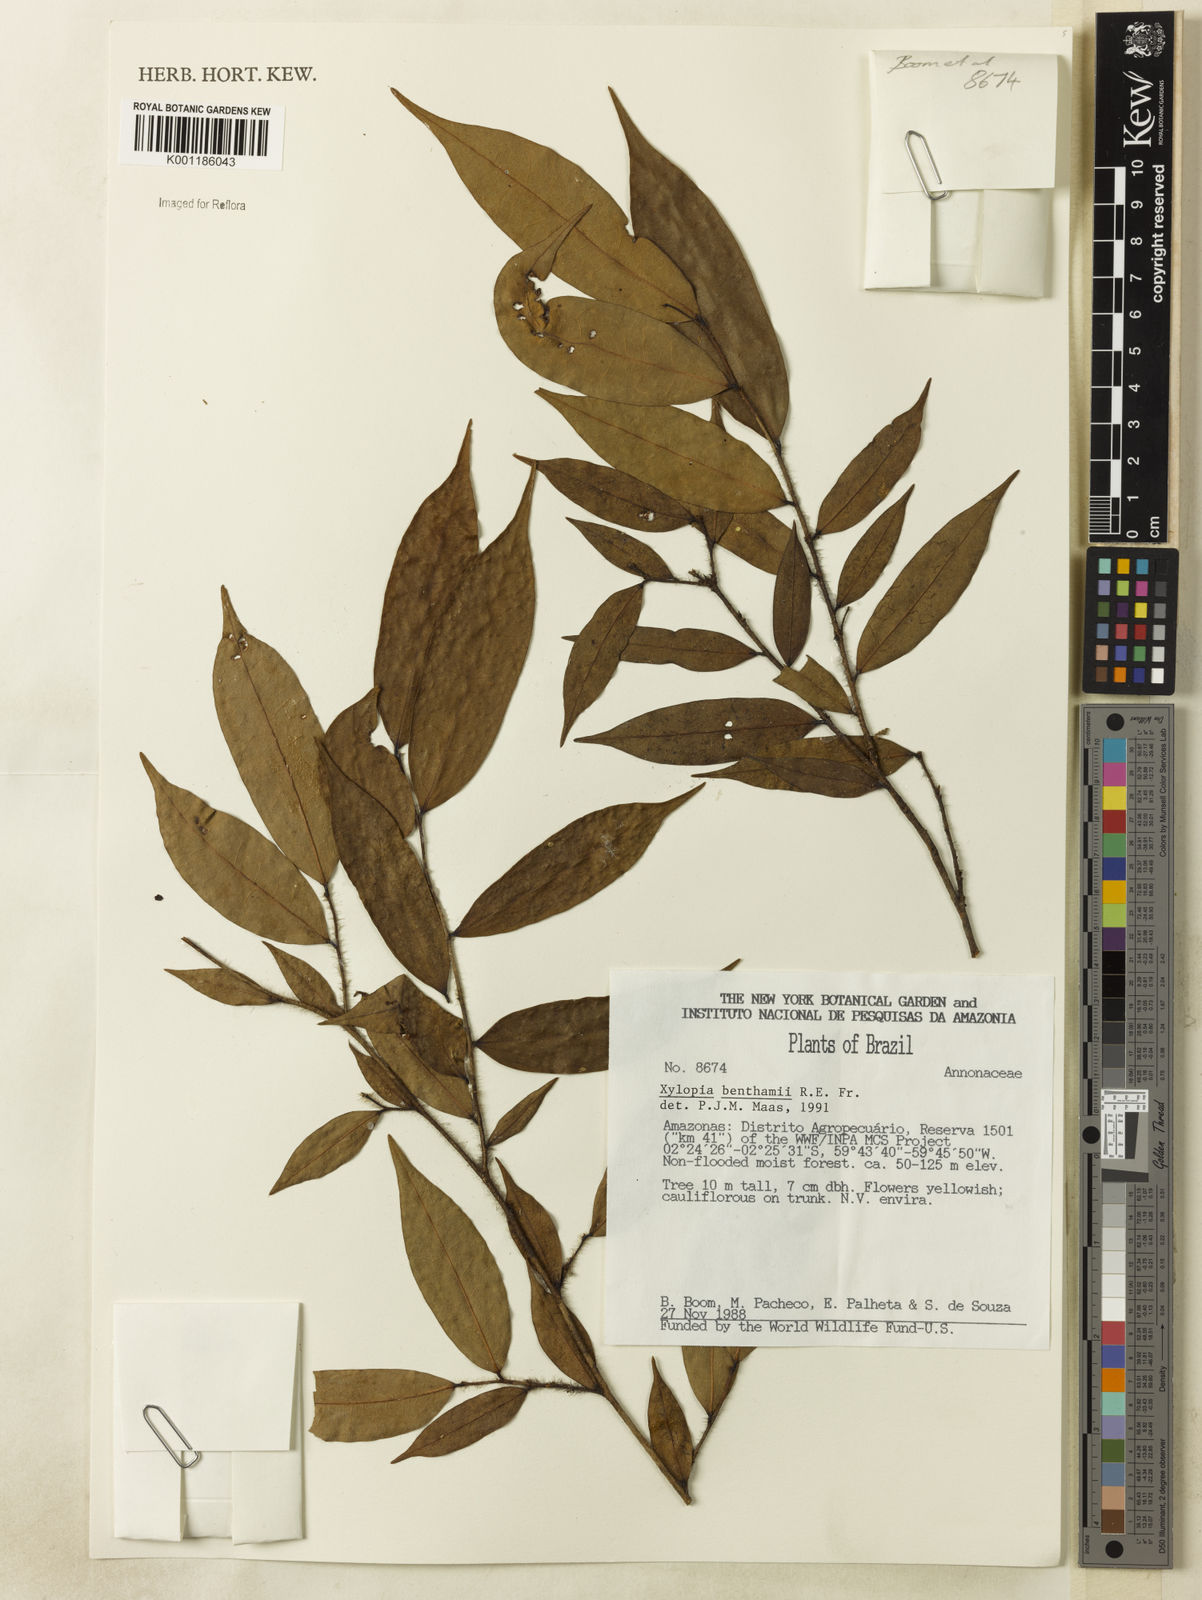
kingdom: Plantae
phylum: Tracheophyta
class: Magnoliopsida
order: Magnoliales
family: Annonaceae
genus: Xylopia
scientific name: Xylopia benthamii
